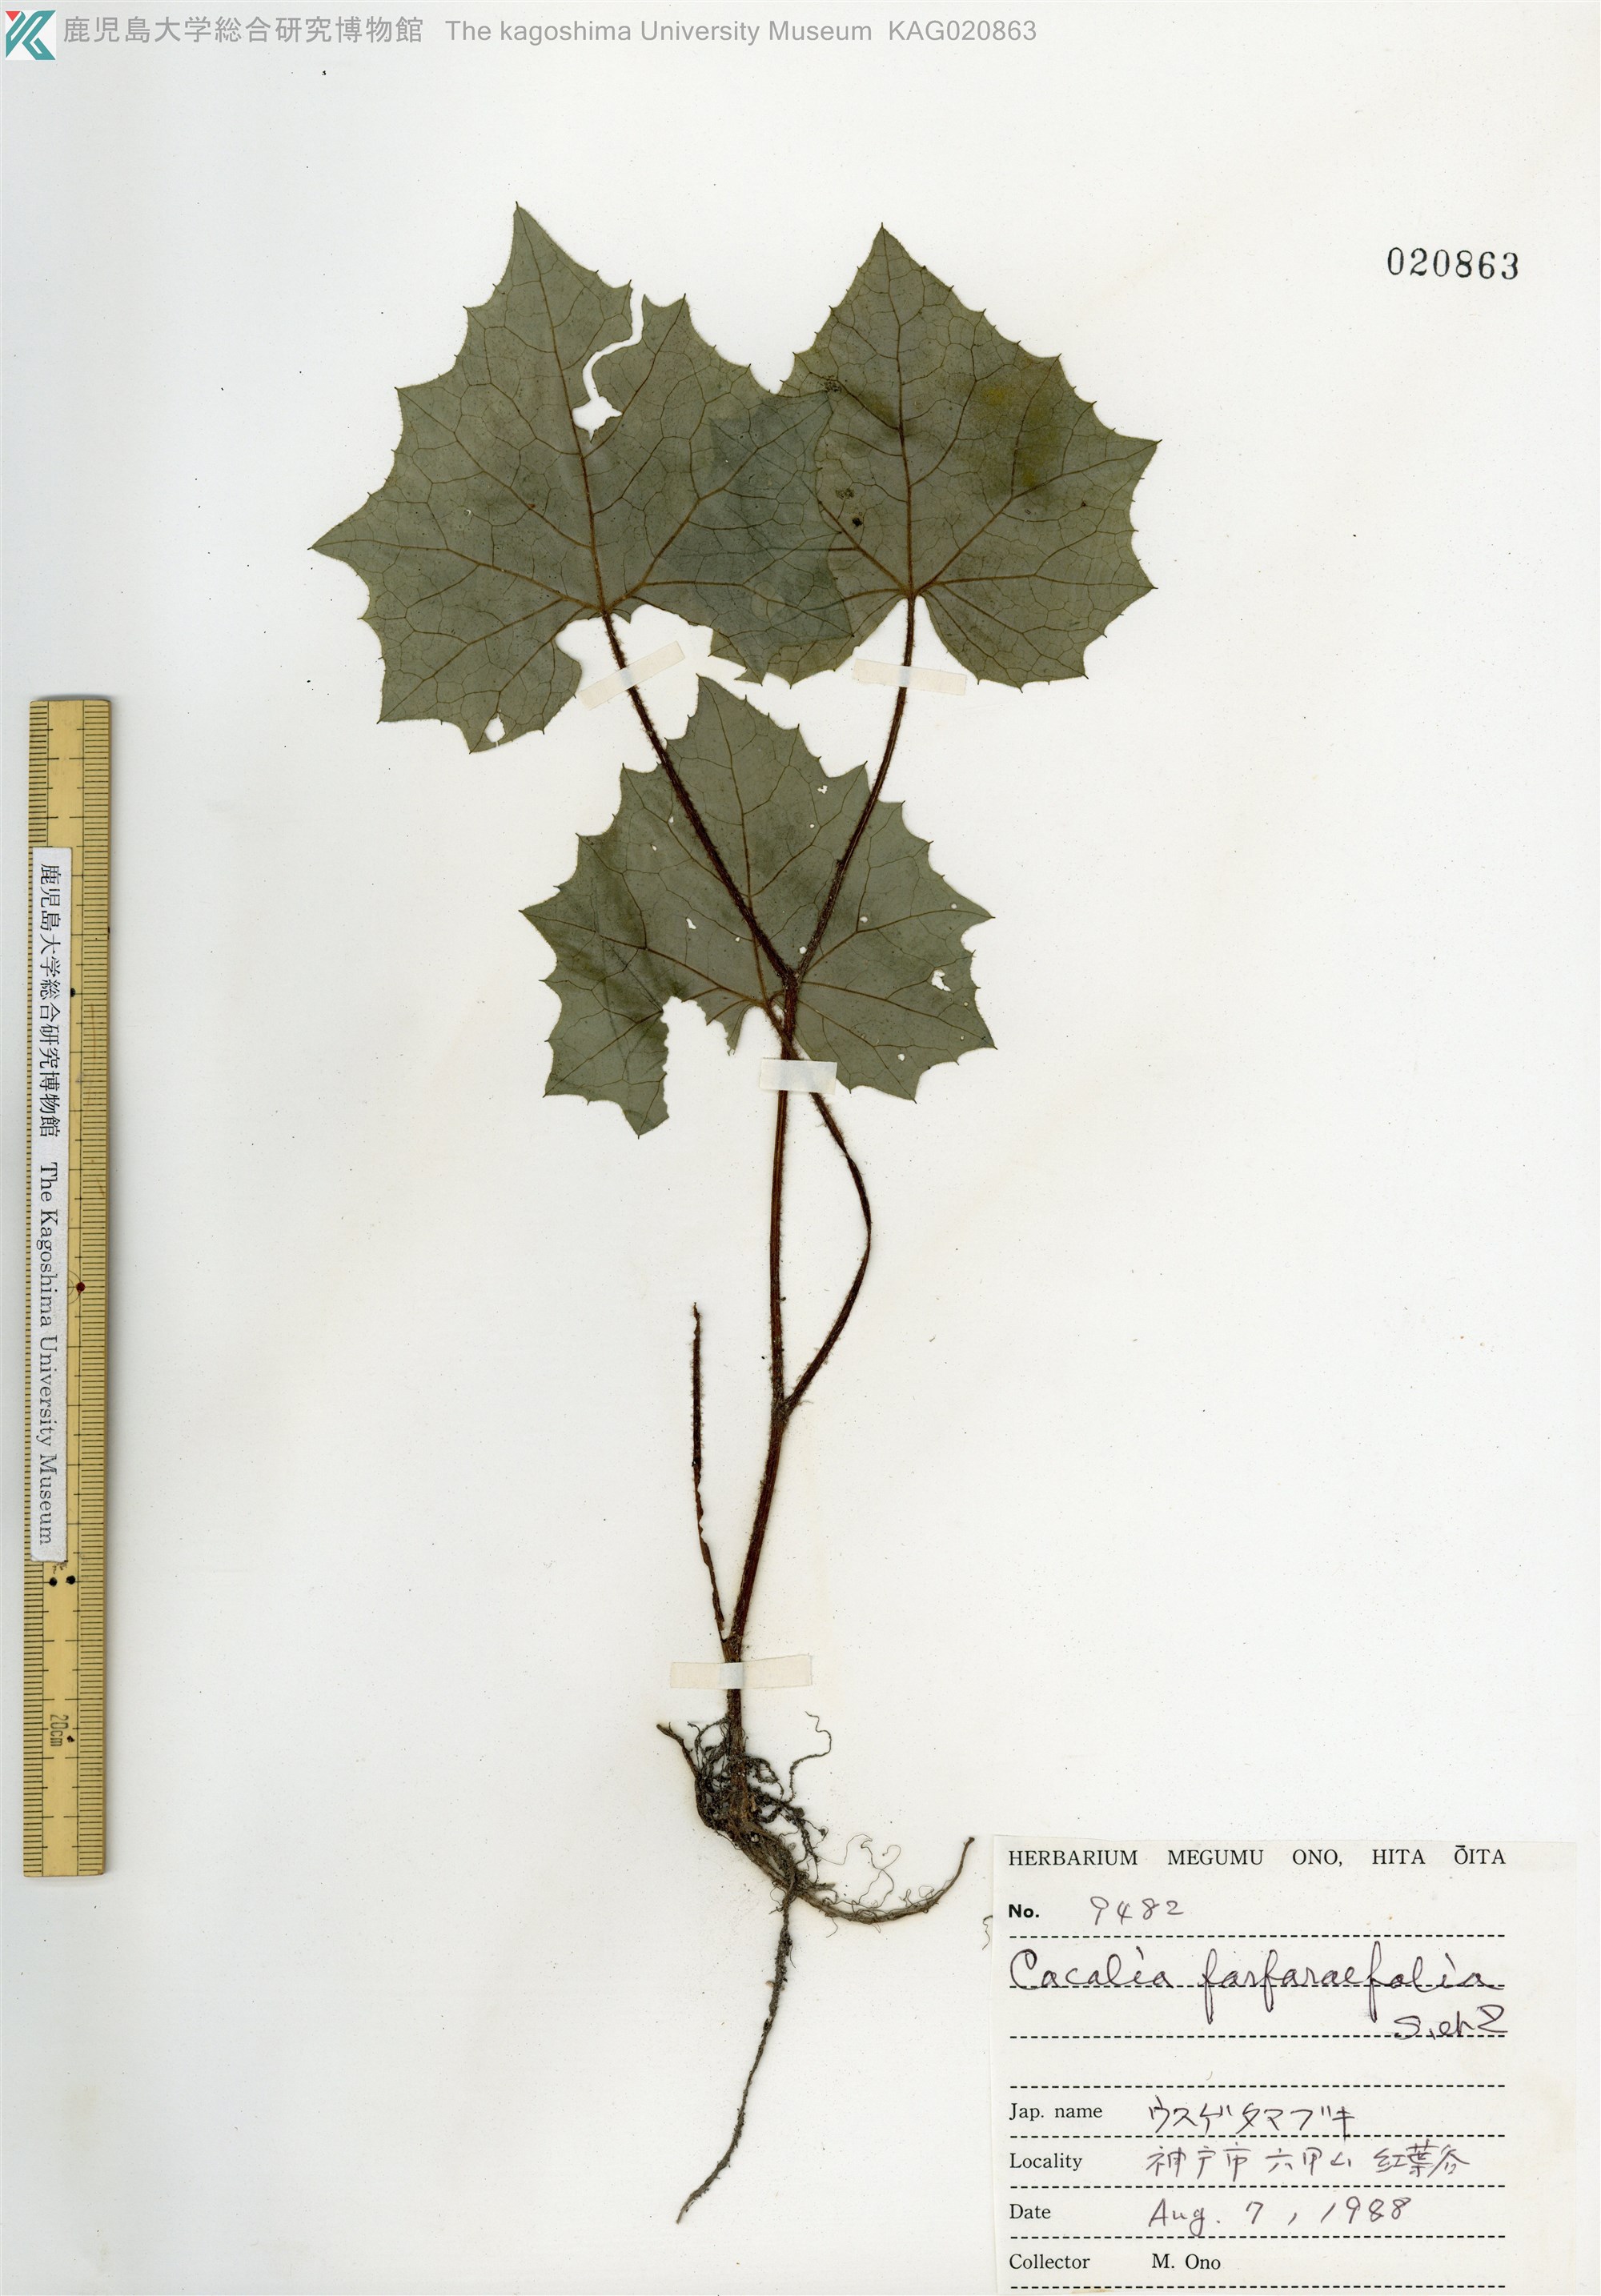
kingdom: Plantae
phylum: Tracheophyta
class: Magnoliopsida
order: Asterales
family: Asteraceae
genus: Parasenecio
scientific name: Parasenecio farfarifolius
